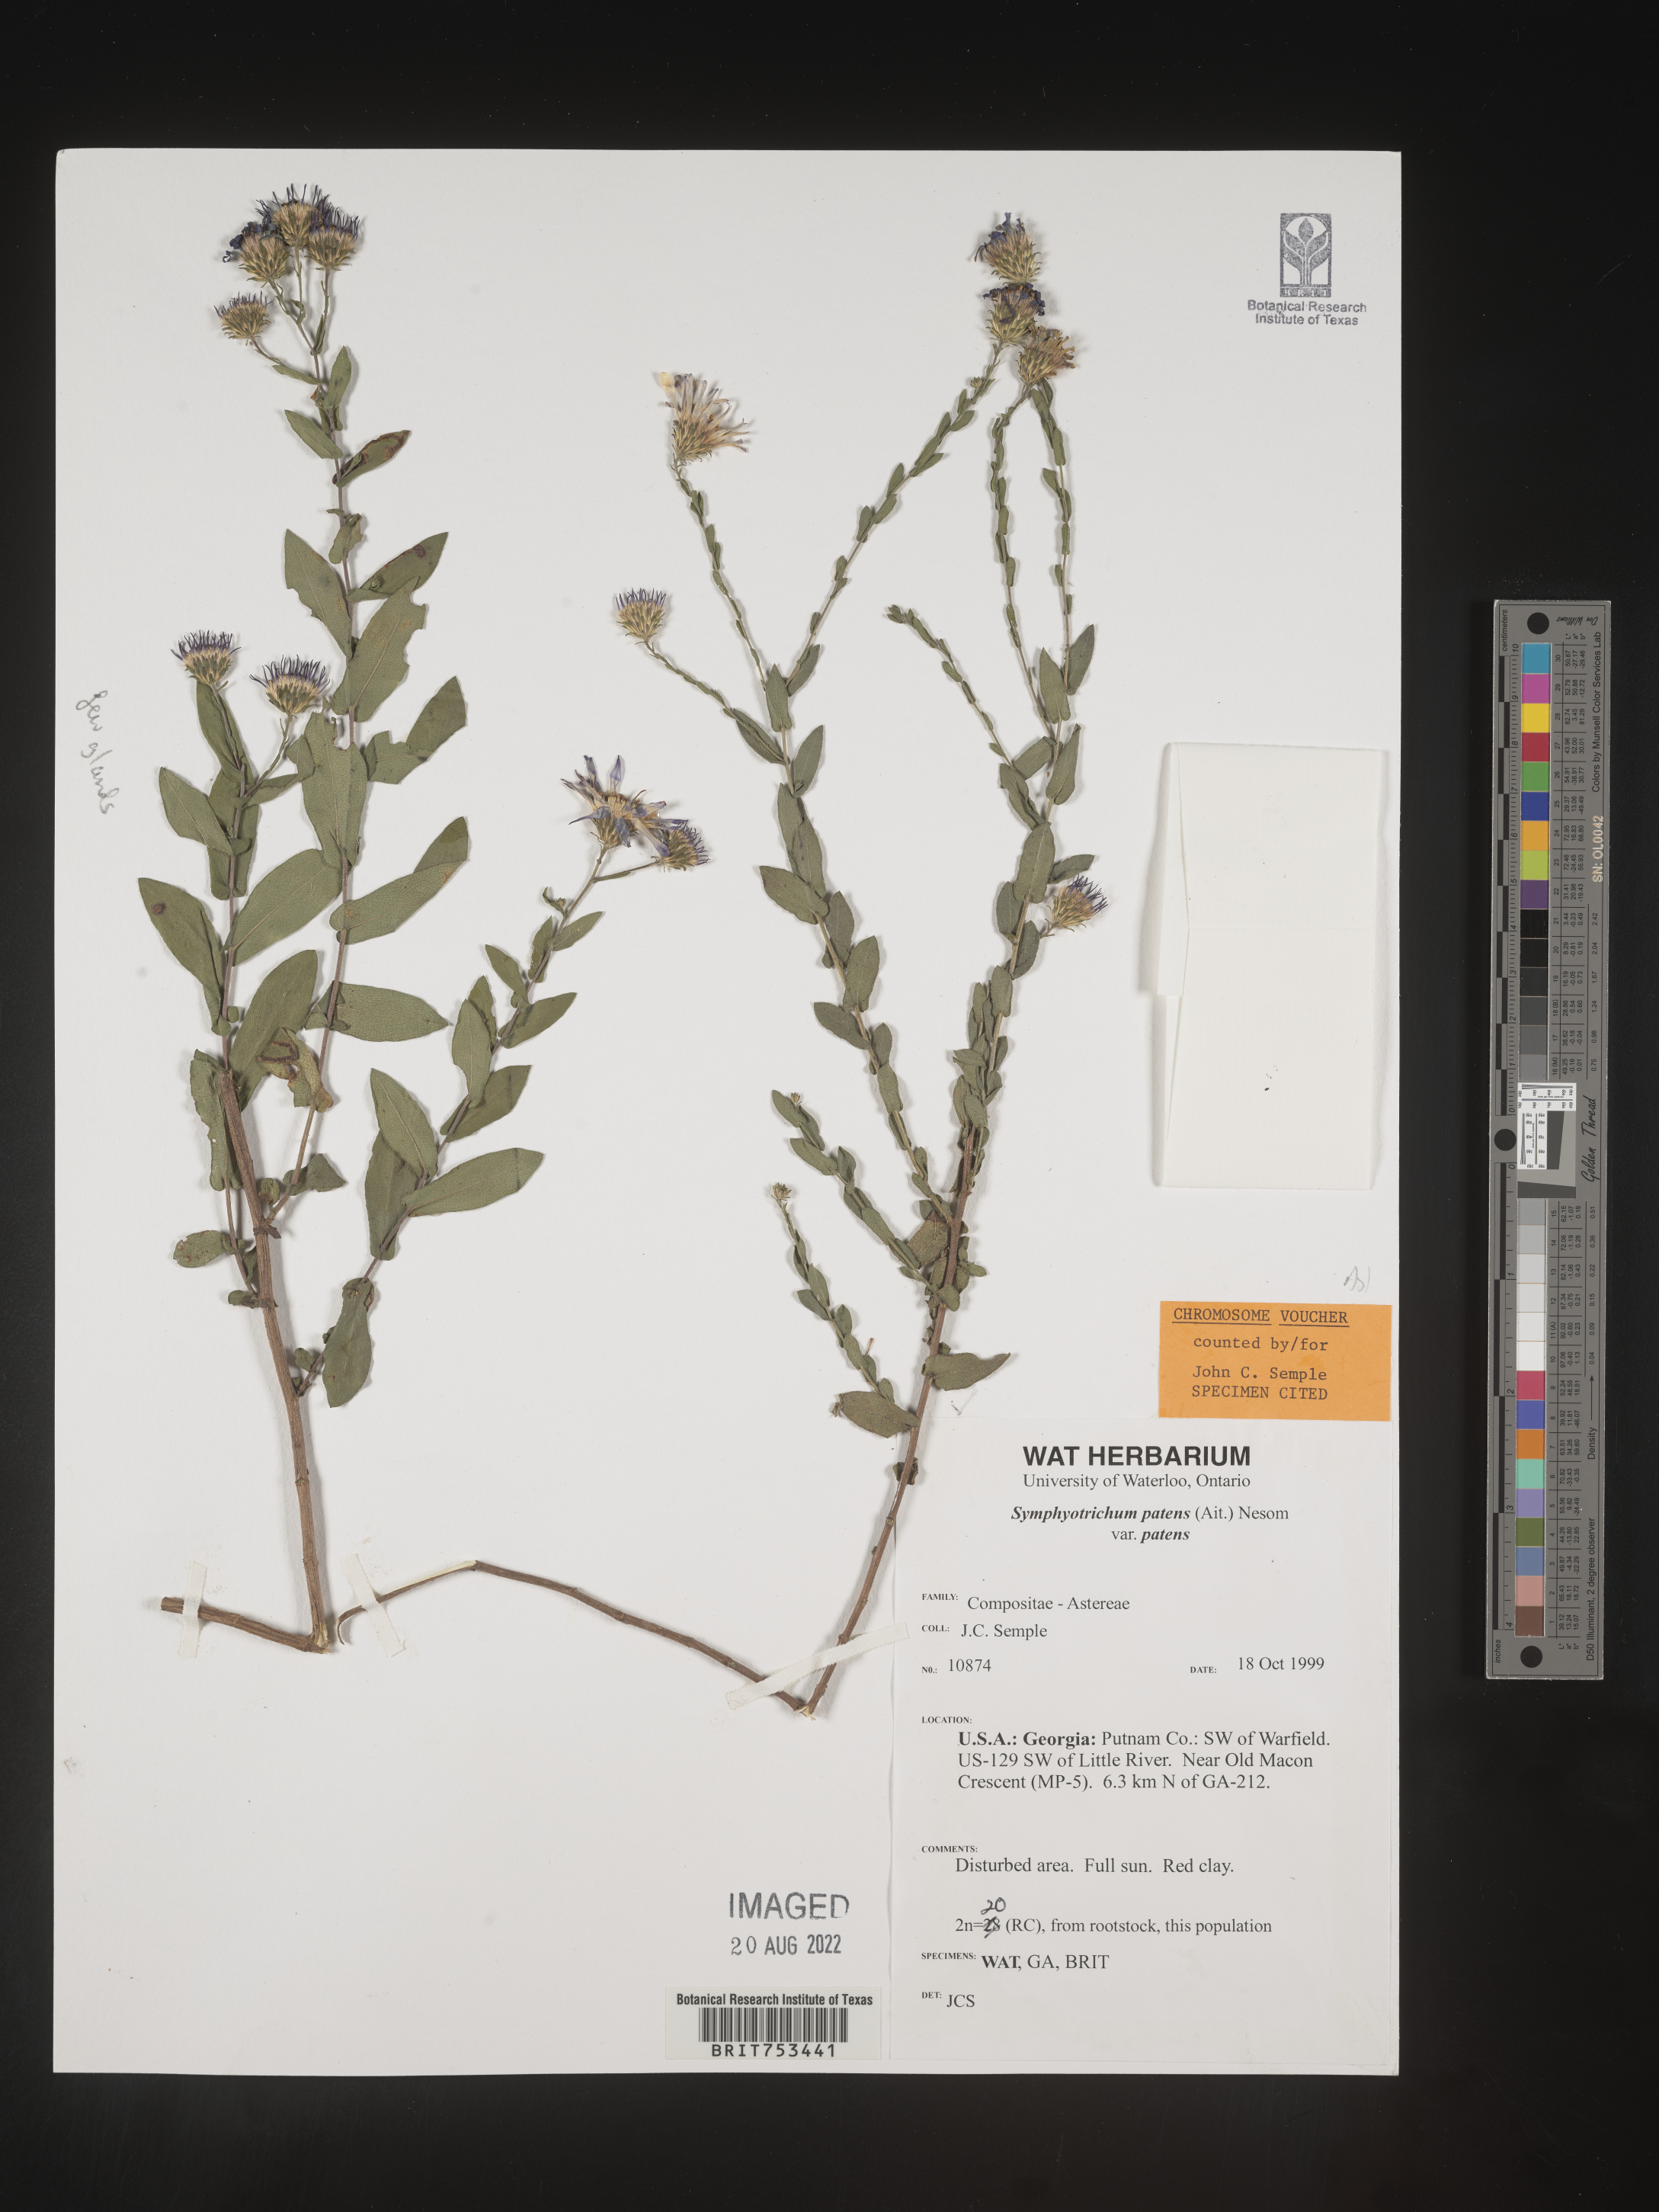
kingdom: Plantae
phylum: Tracheophyta
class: Magnoliopsida
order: Asterales
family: Asteraceae
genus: Symphyotrichum
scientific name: Symphyotrichum patens
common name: Late purple aster
